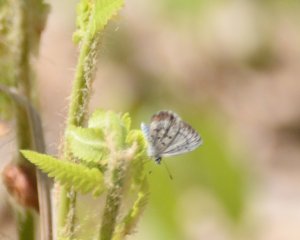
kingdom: Animalia
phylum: Arthropoda
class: Insecta
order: Lepidoptera
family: Lycaenidae
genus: Celastrina
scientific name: Celastrina lucia
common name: Northern Spring Azure
